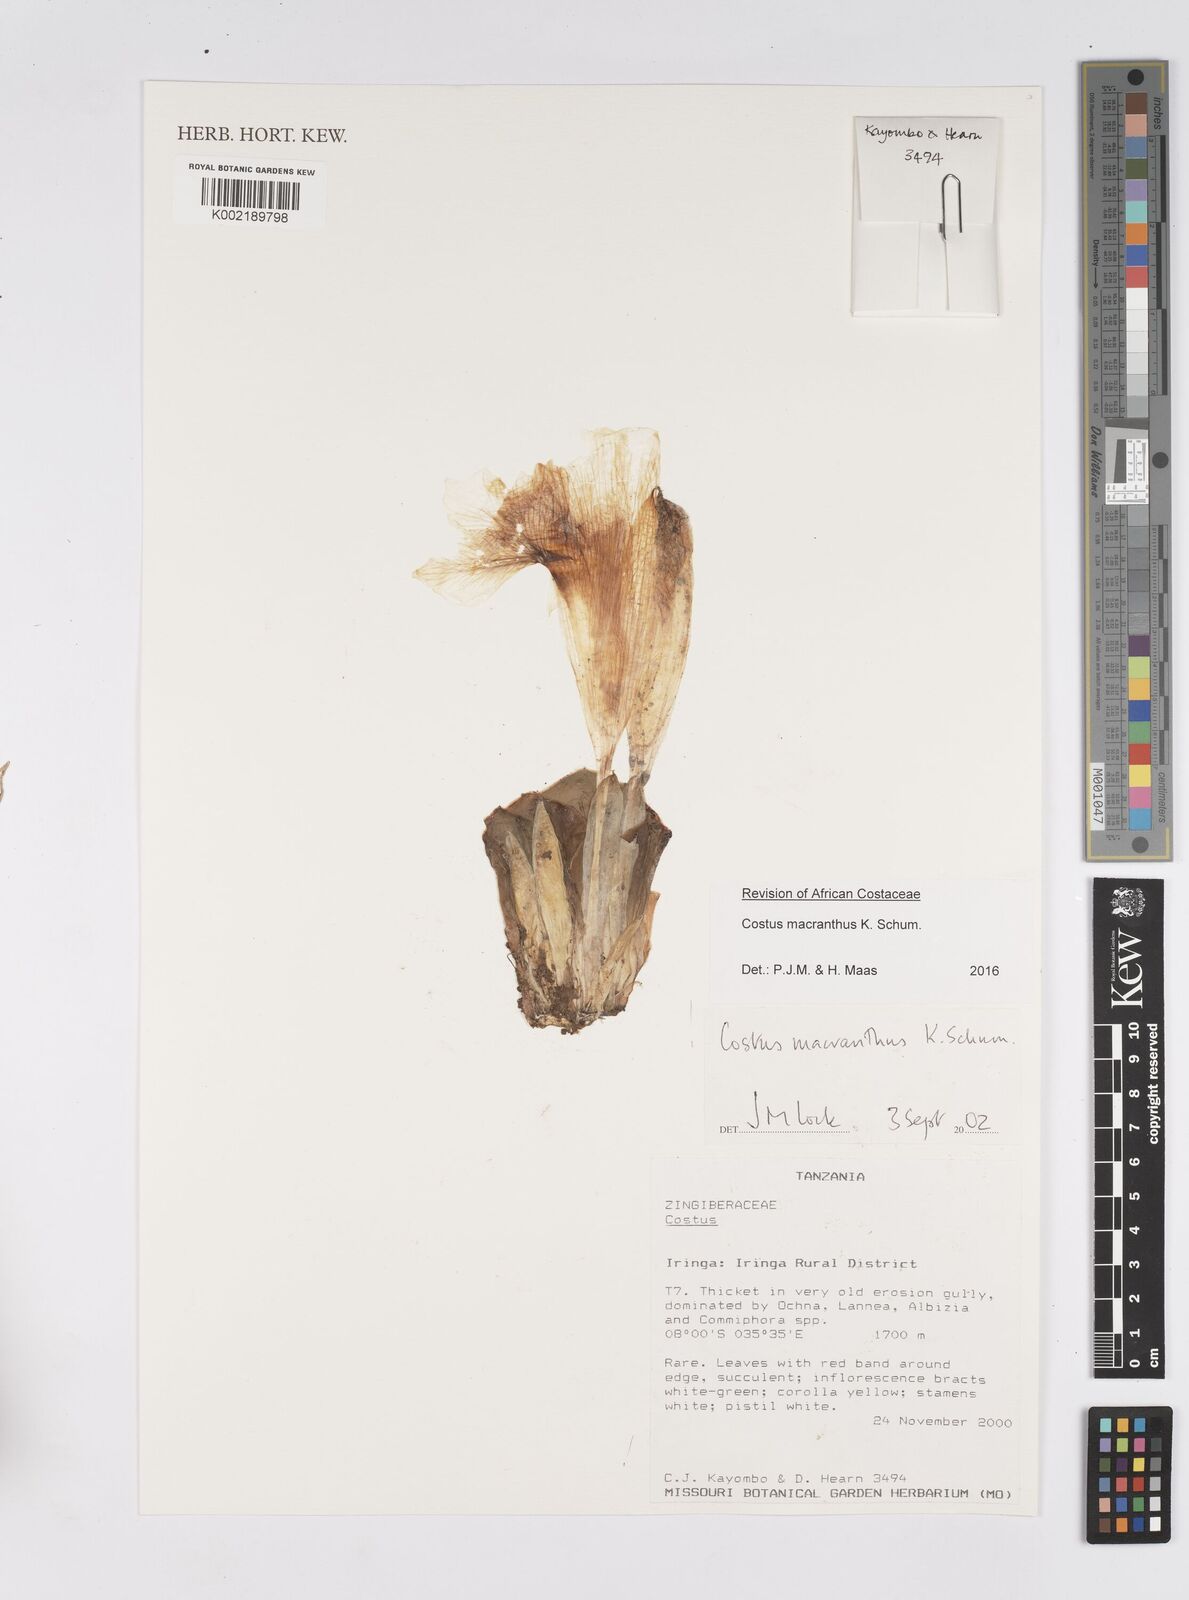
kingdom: Plantae
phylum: Tracheophyta
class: Liliopsida
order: Zingiberales
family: Costaceae
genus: Costus
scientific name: Costus macranthus
